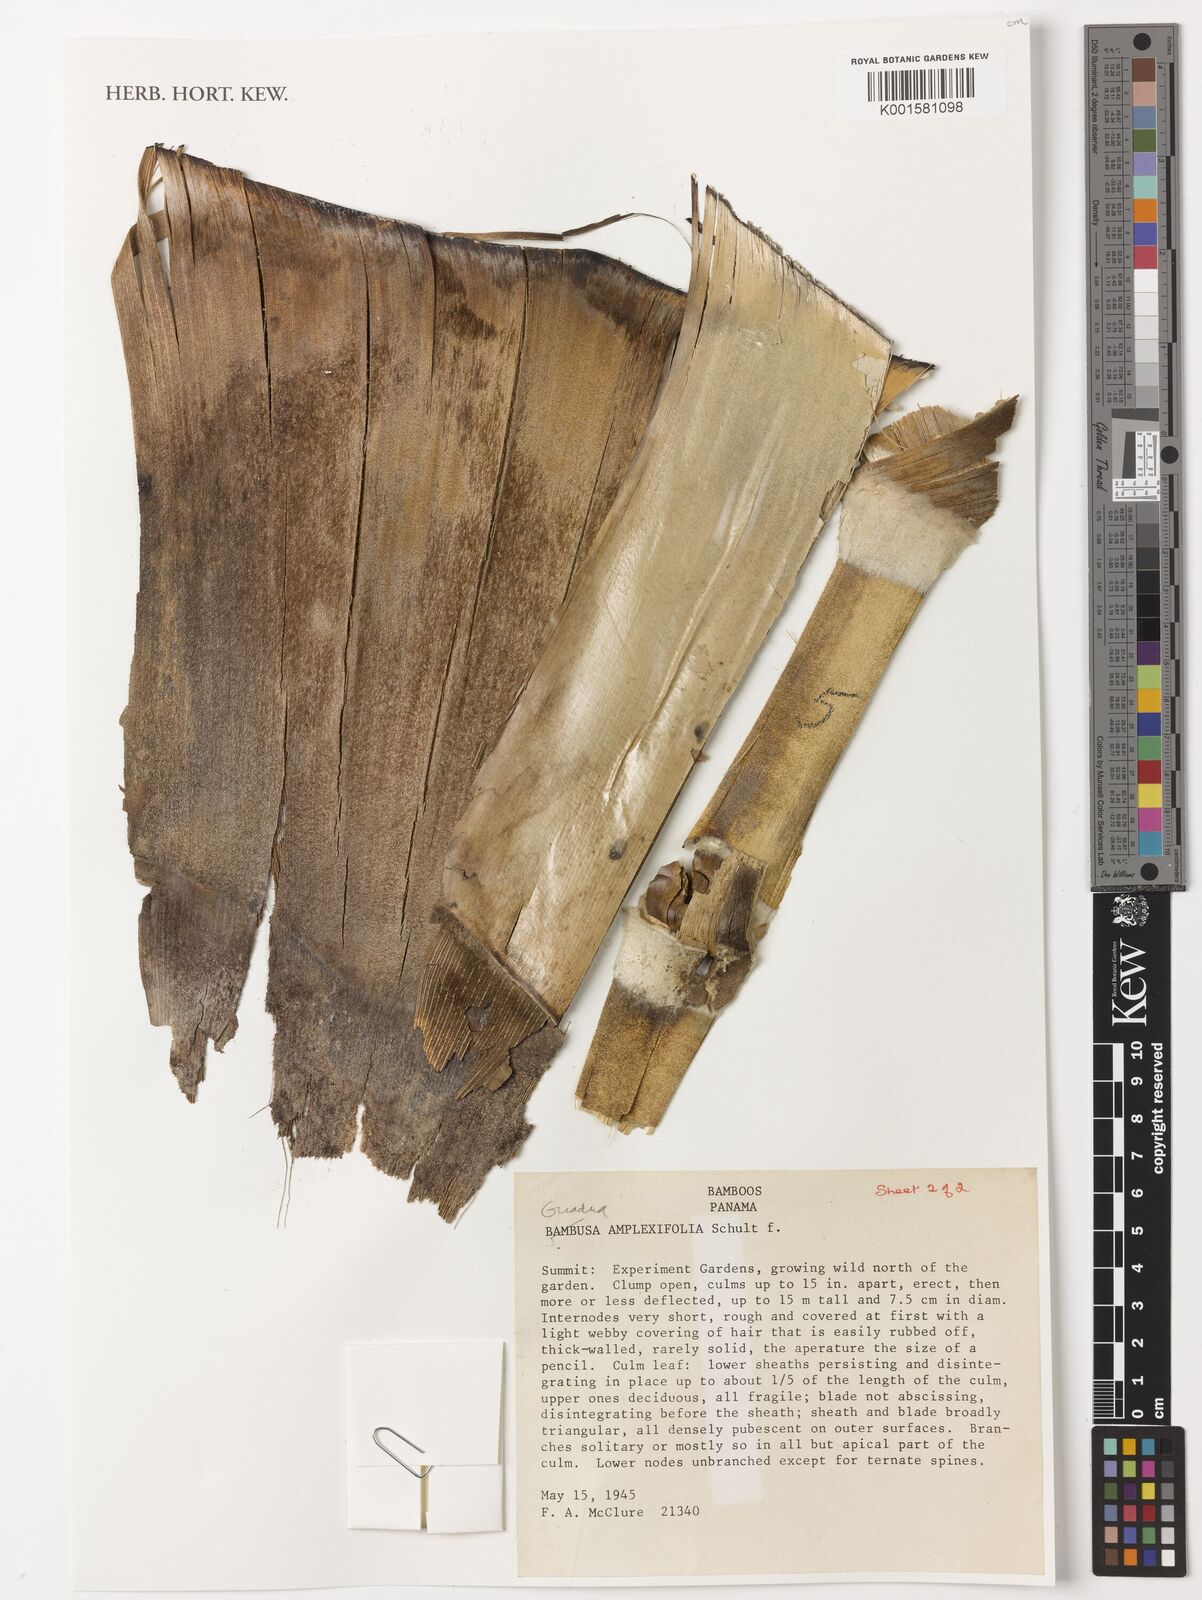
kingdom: Plantae
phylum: Tracheophyta
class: Liliopsida
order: Poales
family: Poaceae
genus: Guadua
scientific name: Guadua amplexifolia
